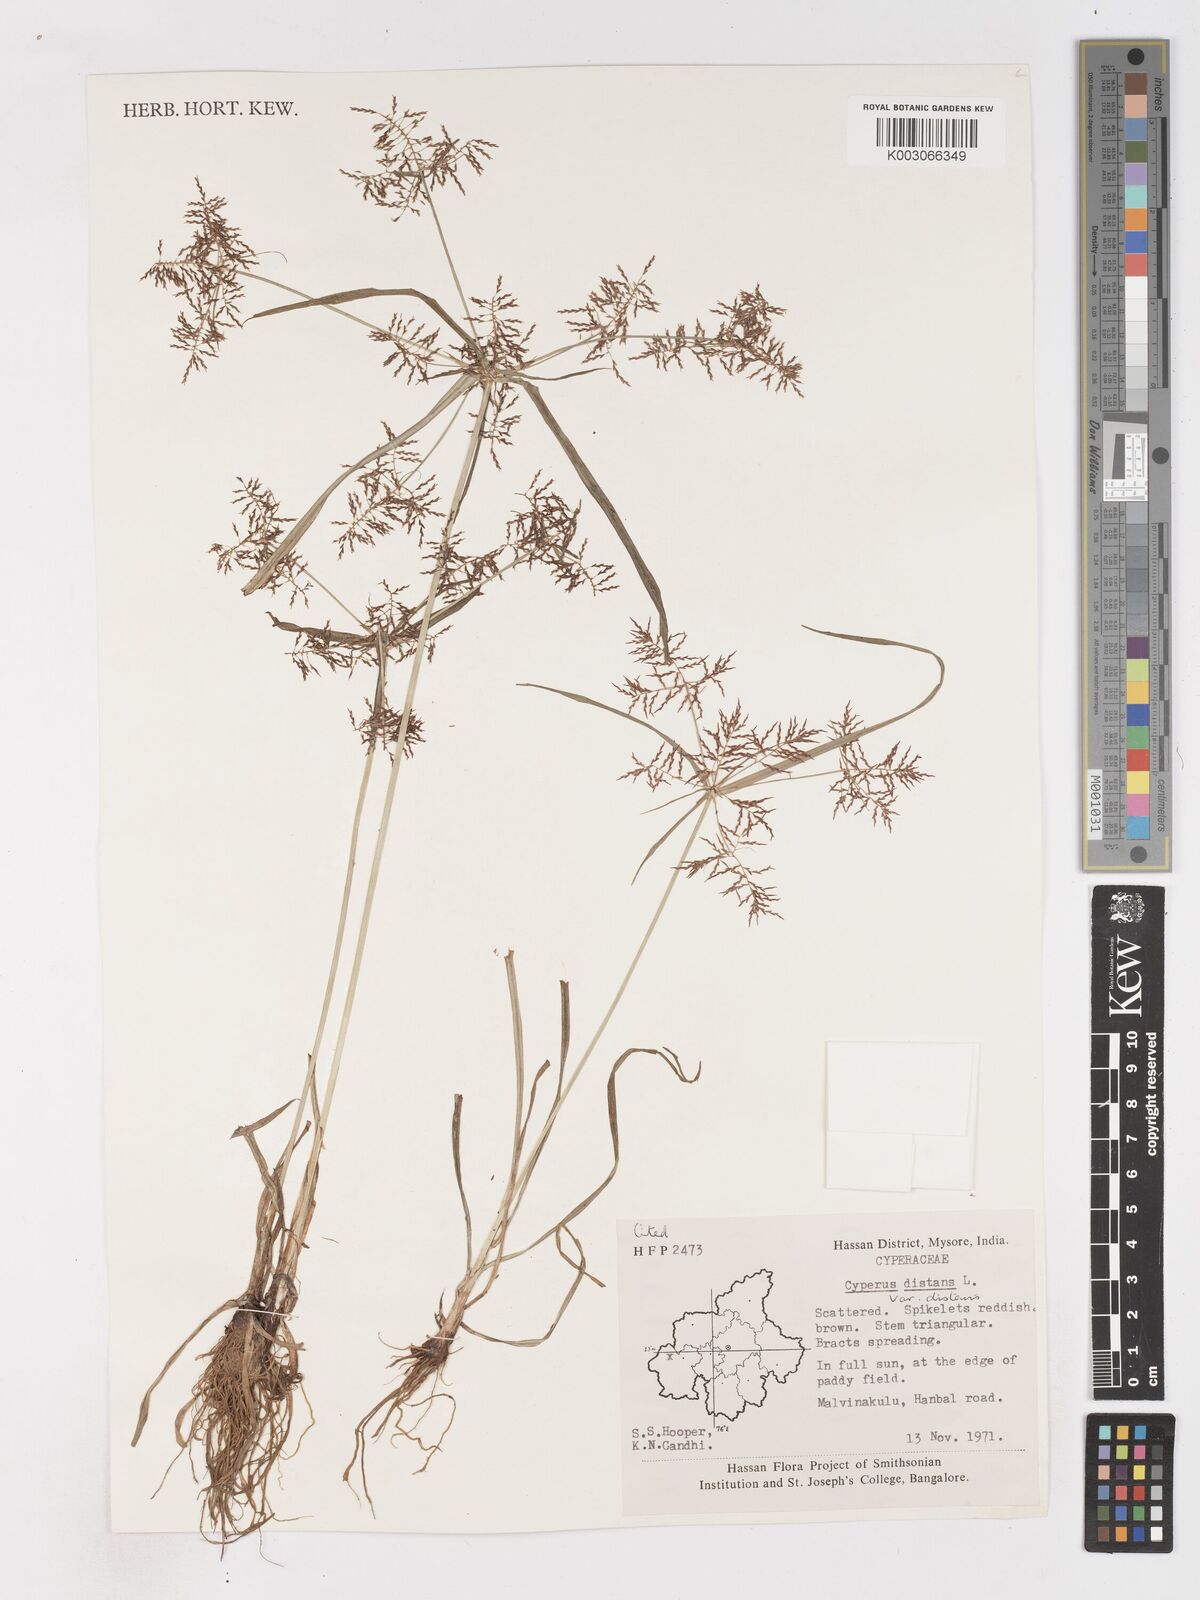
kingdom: Plantae
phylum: Tracheophyta
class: Liliopsida
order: Poales
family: Cyperaceae
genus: Cyperus
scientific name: Cyperus distans
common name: Slender cyperus
